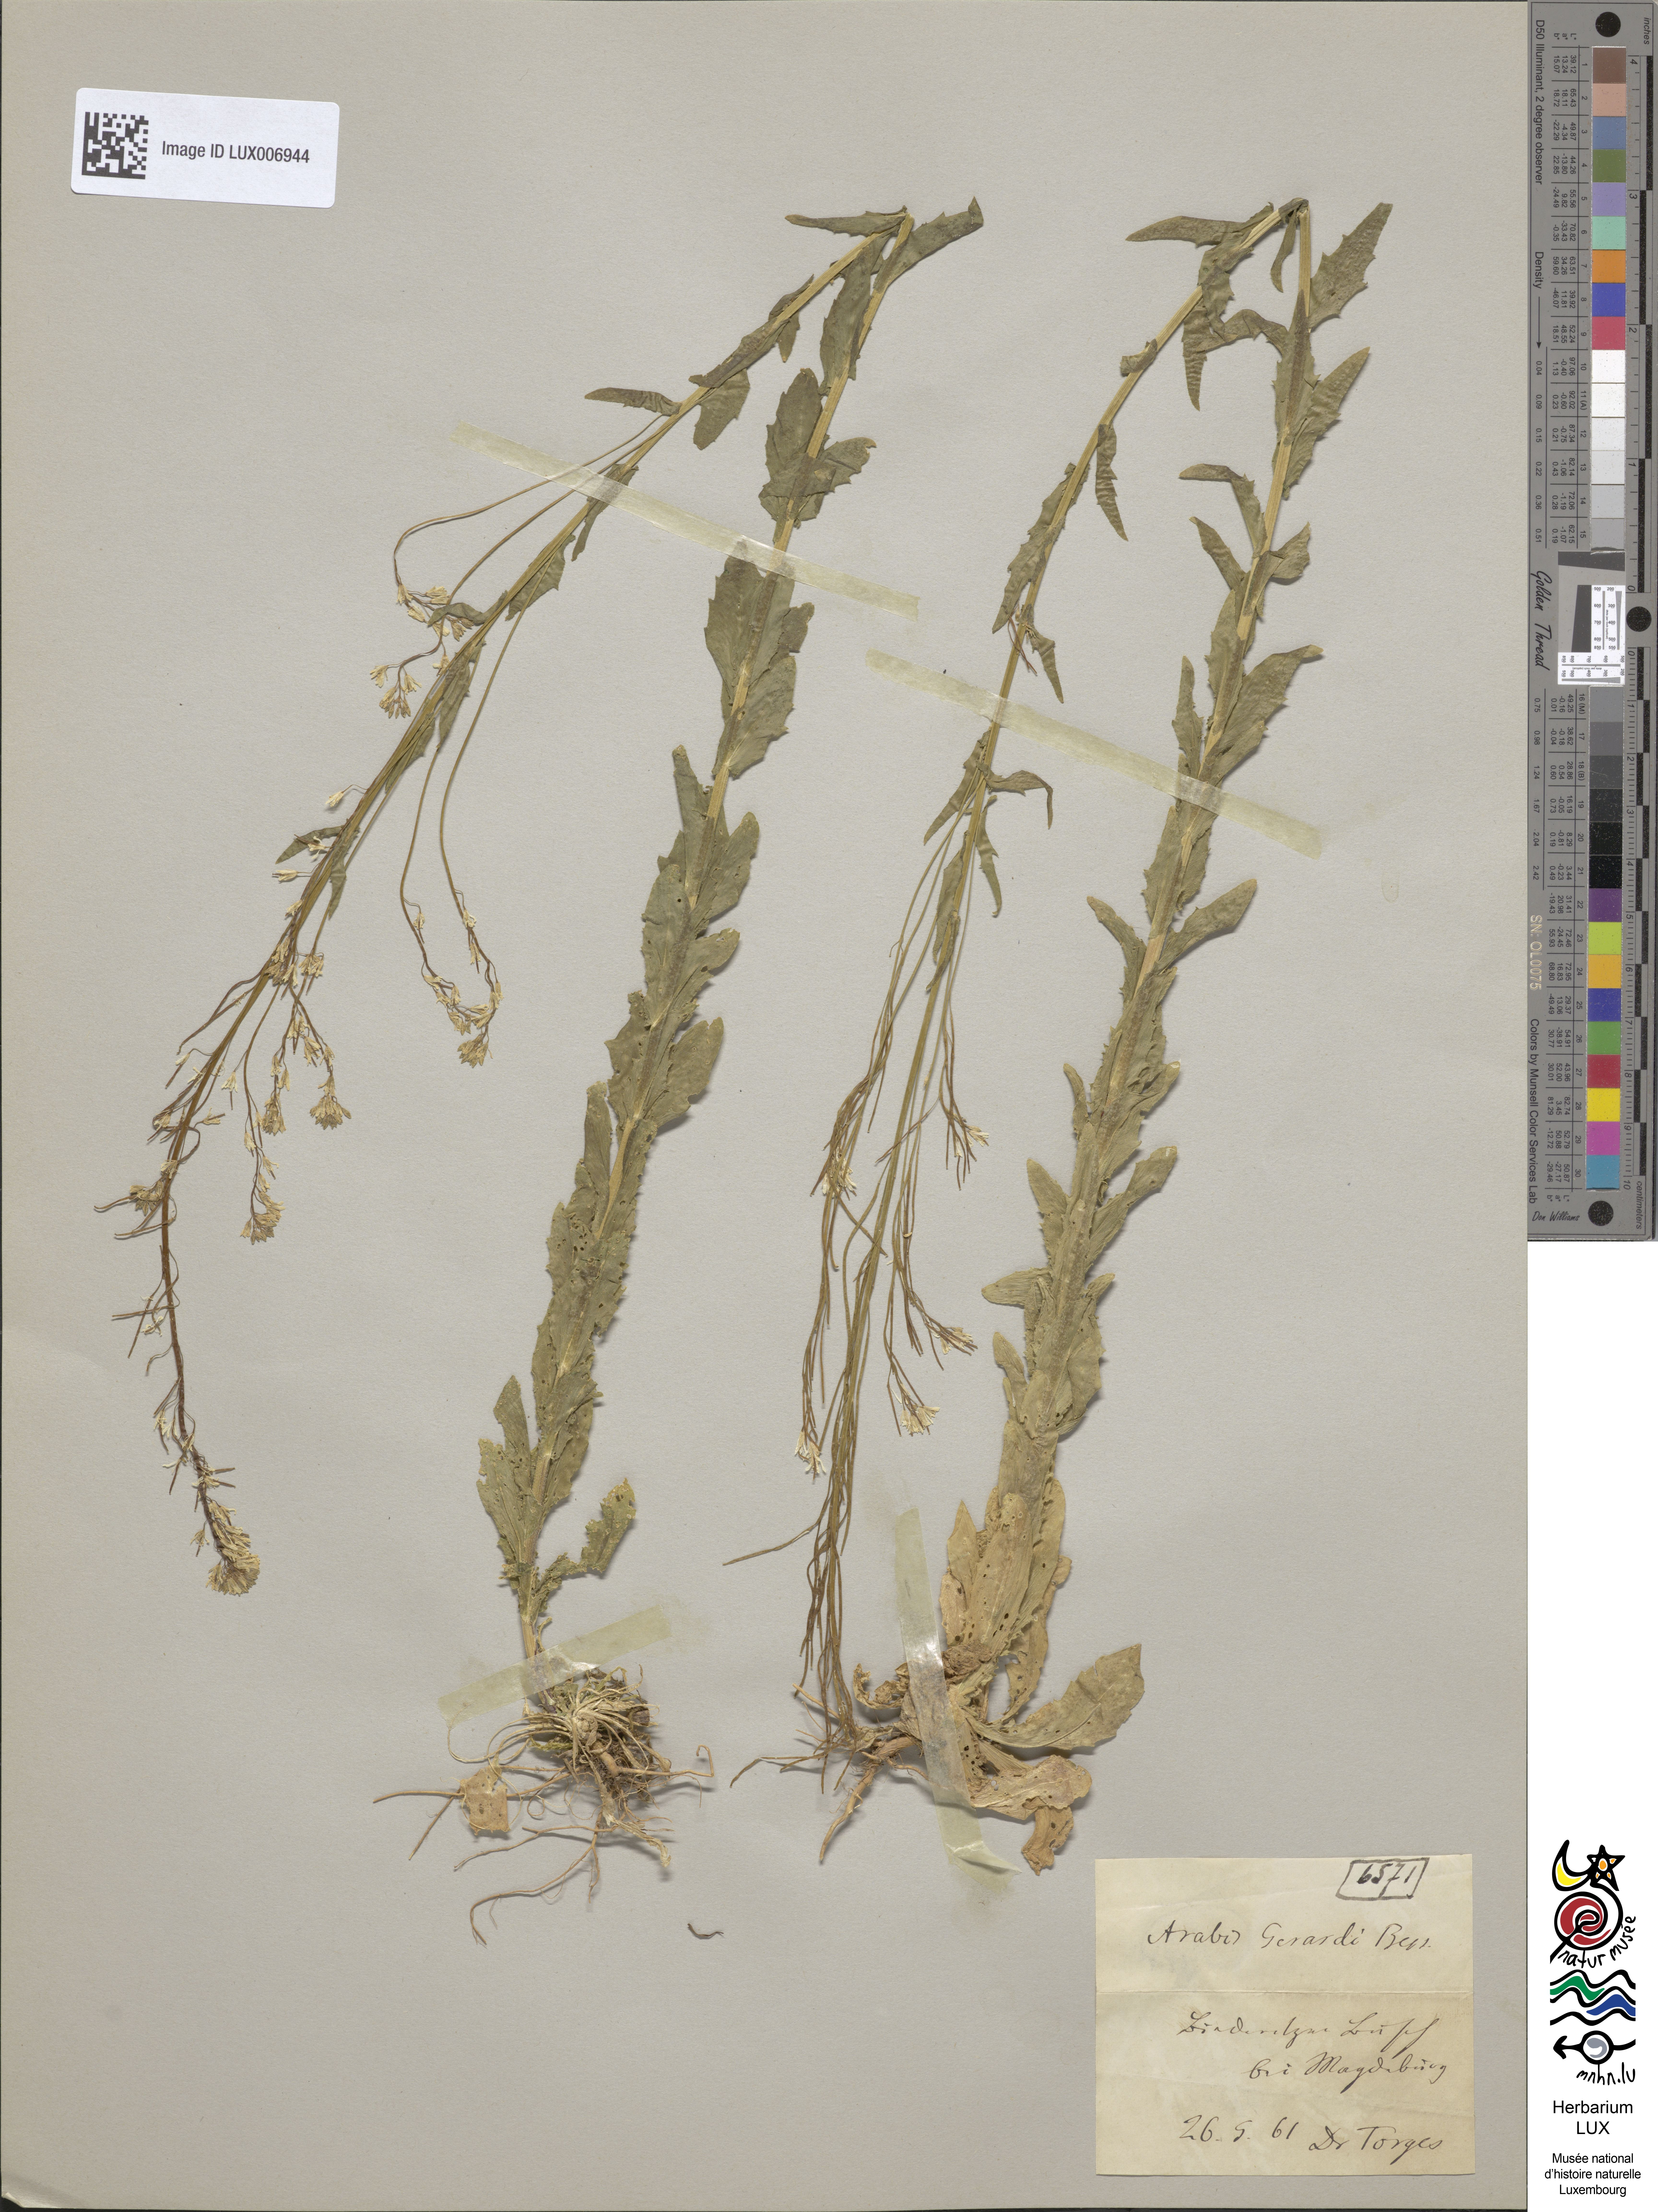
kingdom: Plantae
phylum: Tracheophyta
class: Magnoliopsida
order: Brassicales
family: Brassicaceae
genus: Arabis
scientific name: Arabis planisiliqua
